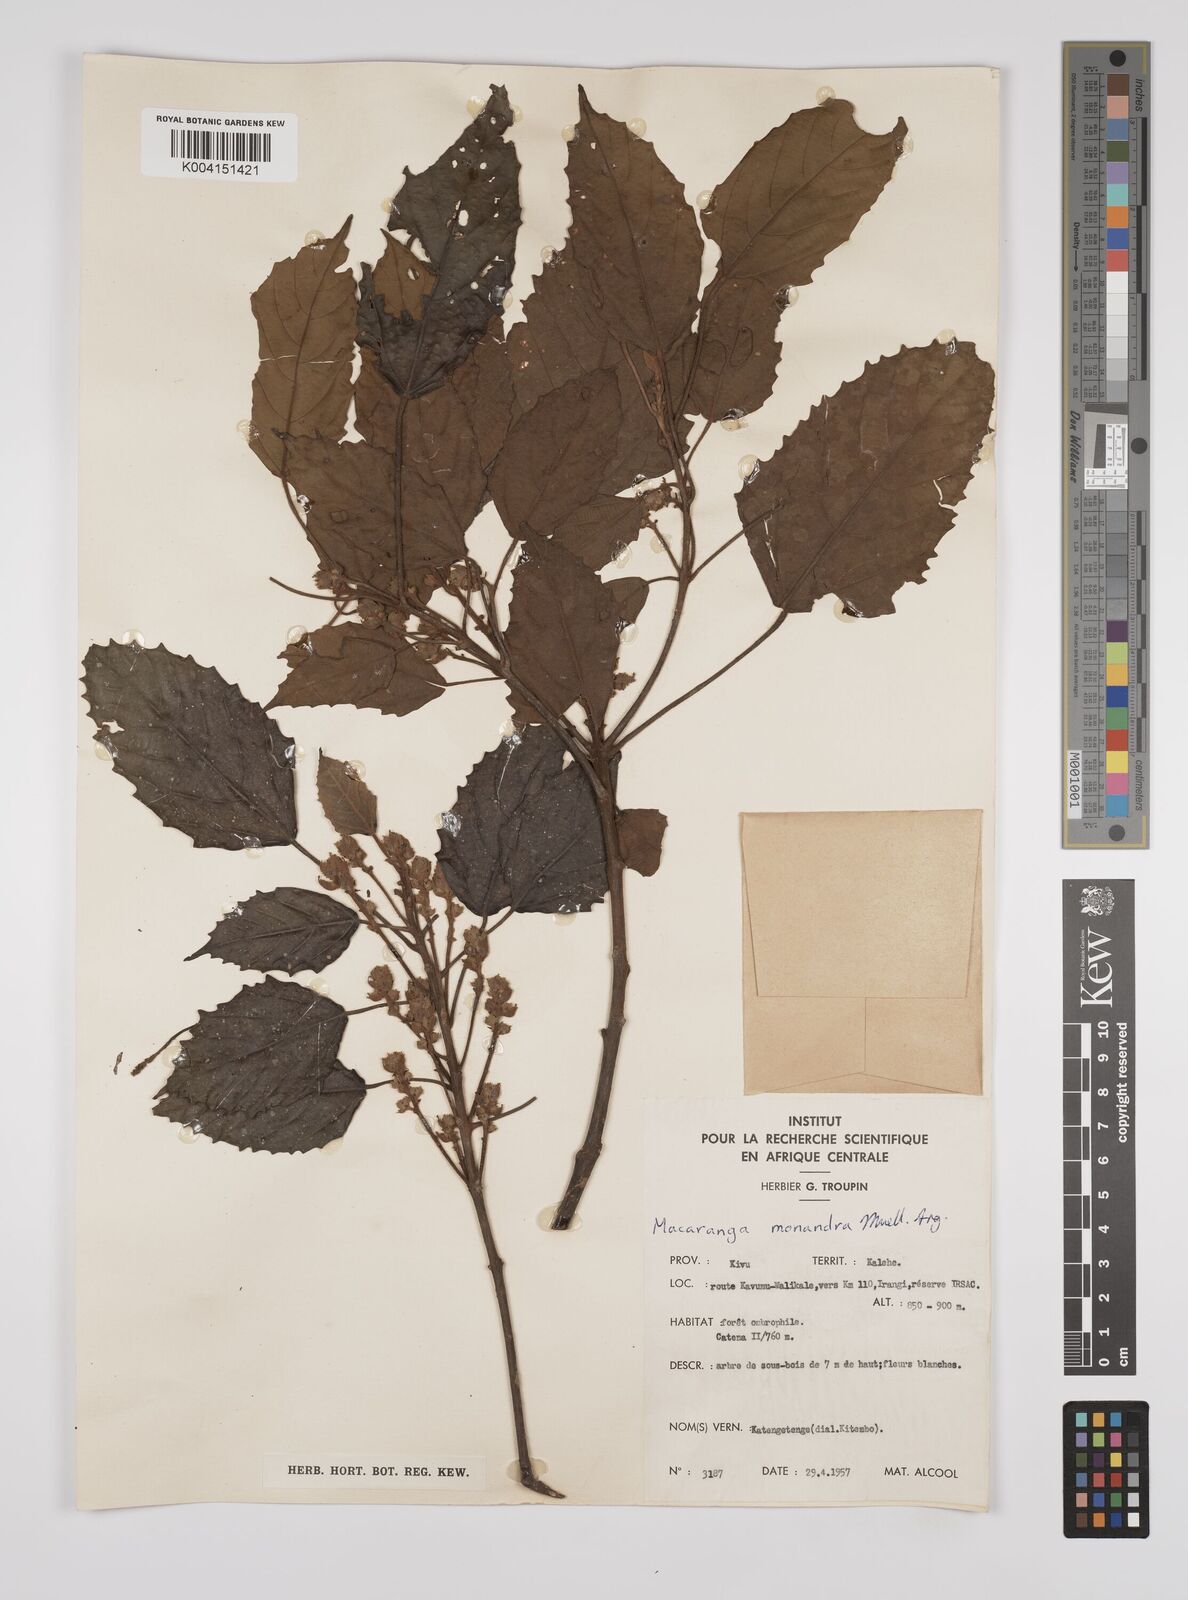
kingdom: Plantae
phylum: Tracheophyta
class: Magnoliopsida
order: Malpighiales
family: Euphorbiaceae
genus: Macaranga
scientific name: Macaranga monandra
